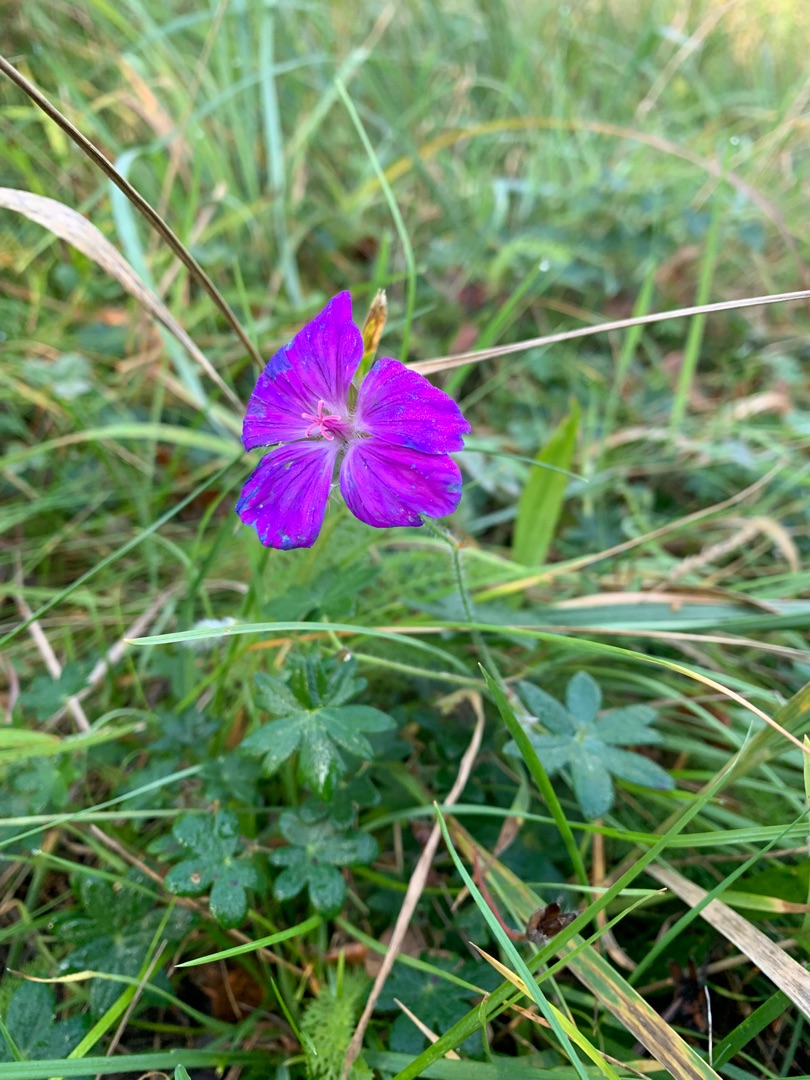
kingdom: Plantae
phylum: Tracheophyta
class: Magnoliopsida
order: Geraniales
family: Geraniaceae
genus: Geranium
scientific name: Geranium sanguineum
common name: Blodrød storkenæb
